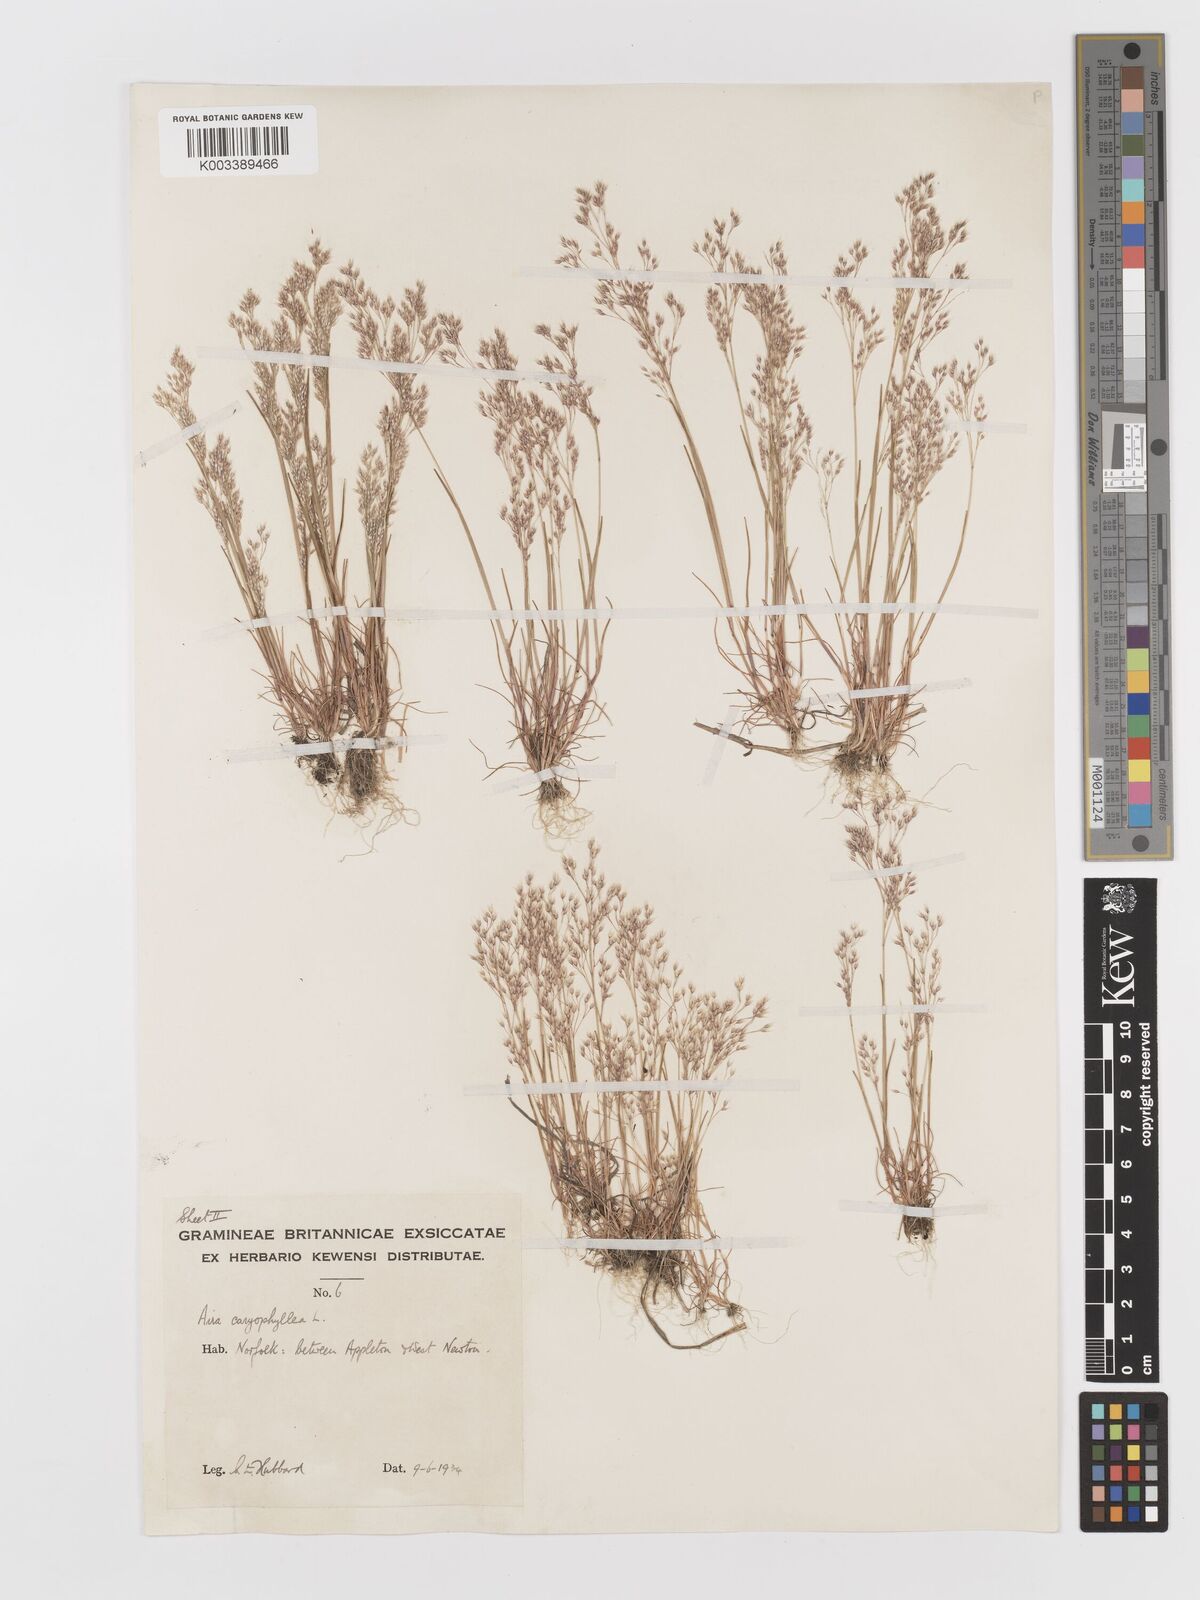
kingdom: Plantae
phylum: Tracheophyta
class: Liliopsida
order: Poales
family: Poaceae
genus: Aira
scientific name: Aira caryophyllea
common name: Silver hairgrass
